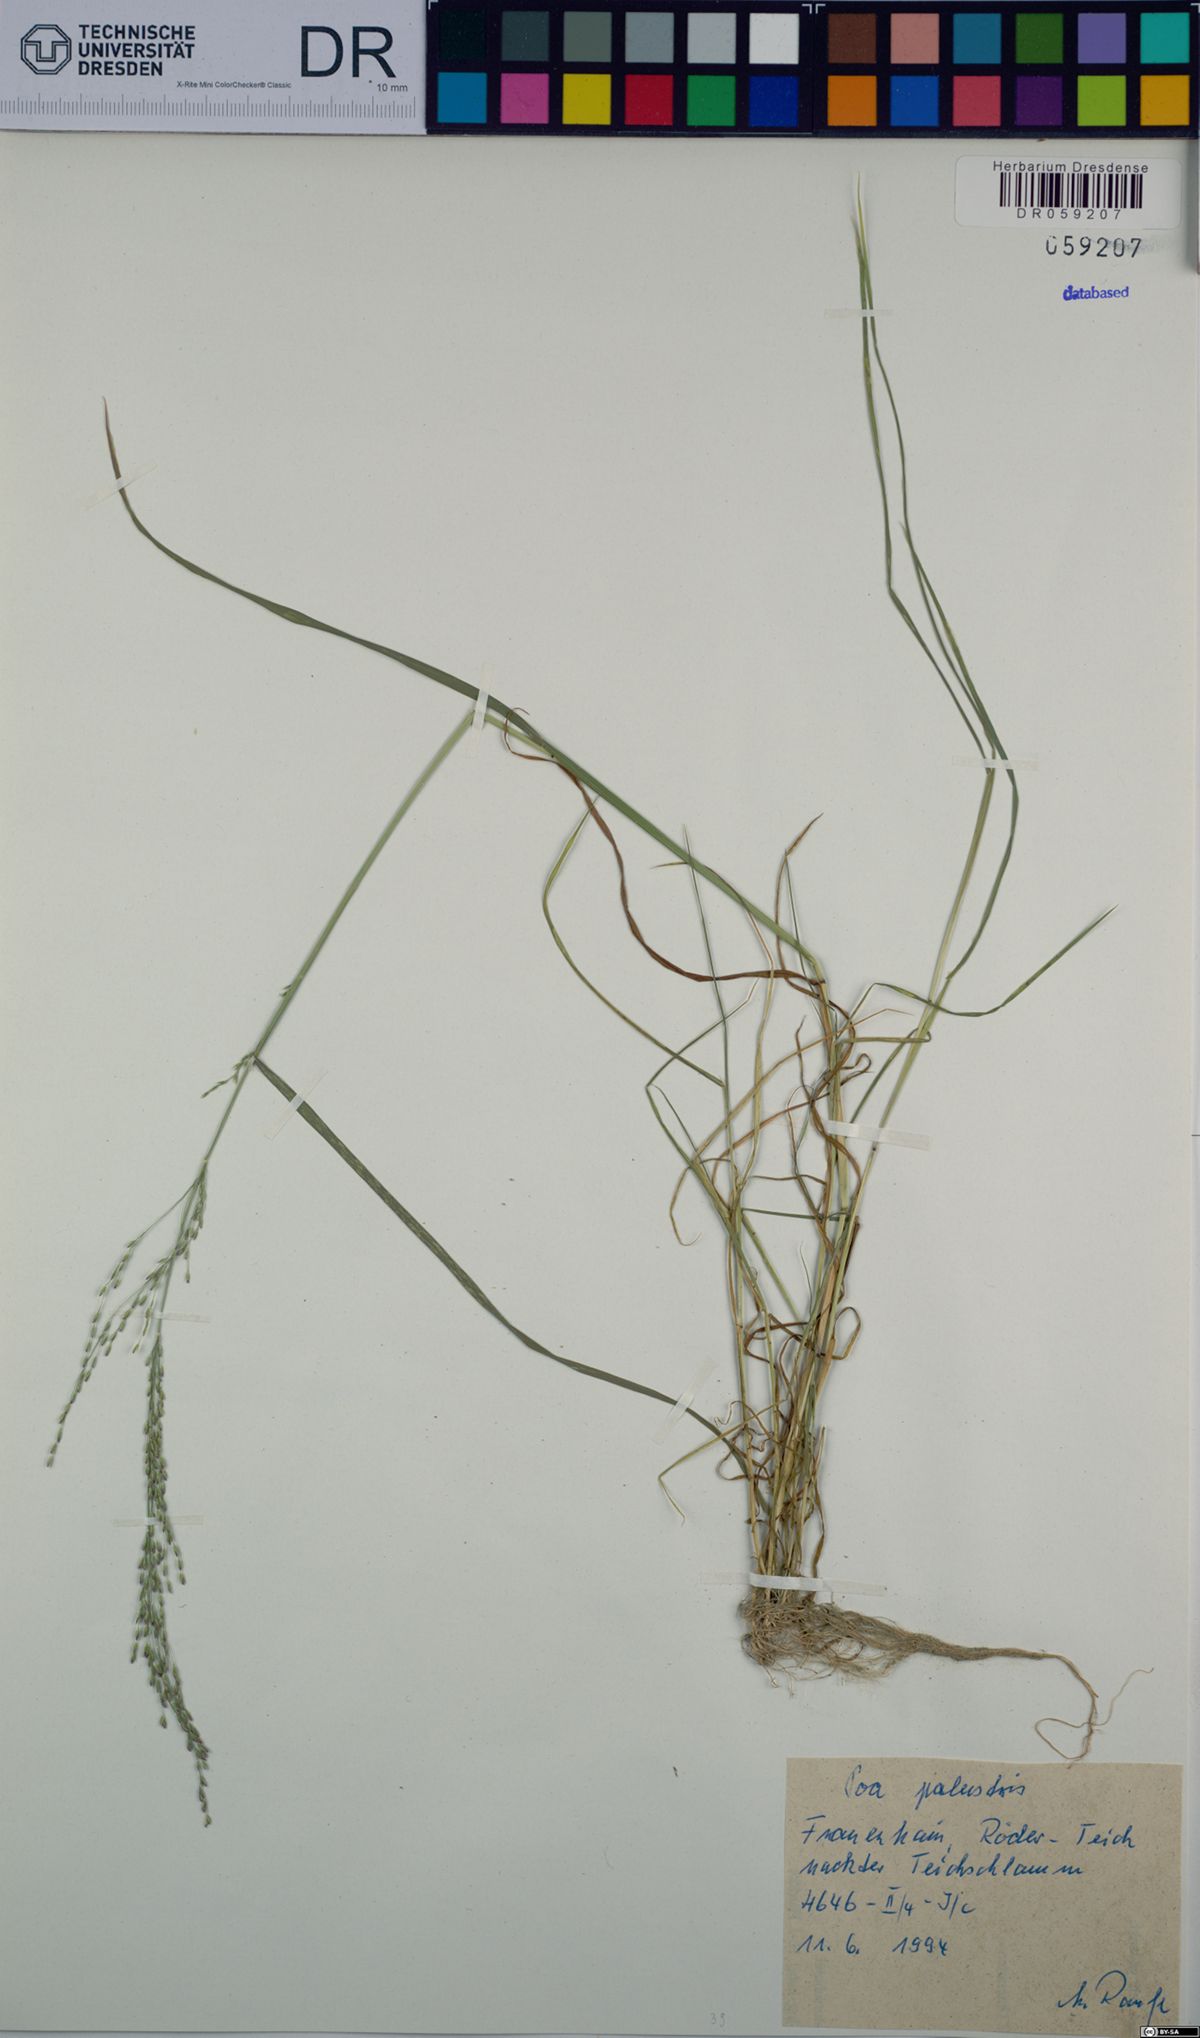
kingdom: Plantae
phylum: Tracheophyta
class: Liliopsida
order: Poales
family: Poaceae
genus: Poa
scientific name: Poa palustris
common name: Swamp meadow-grass
